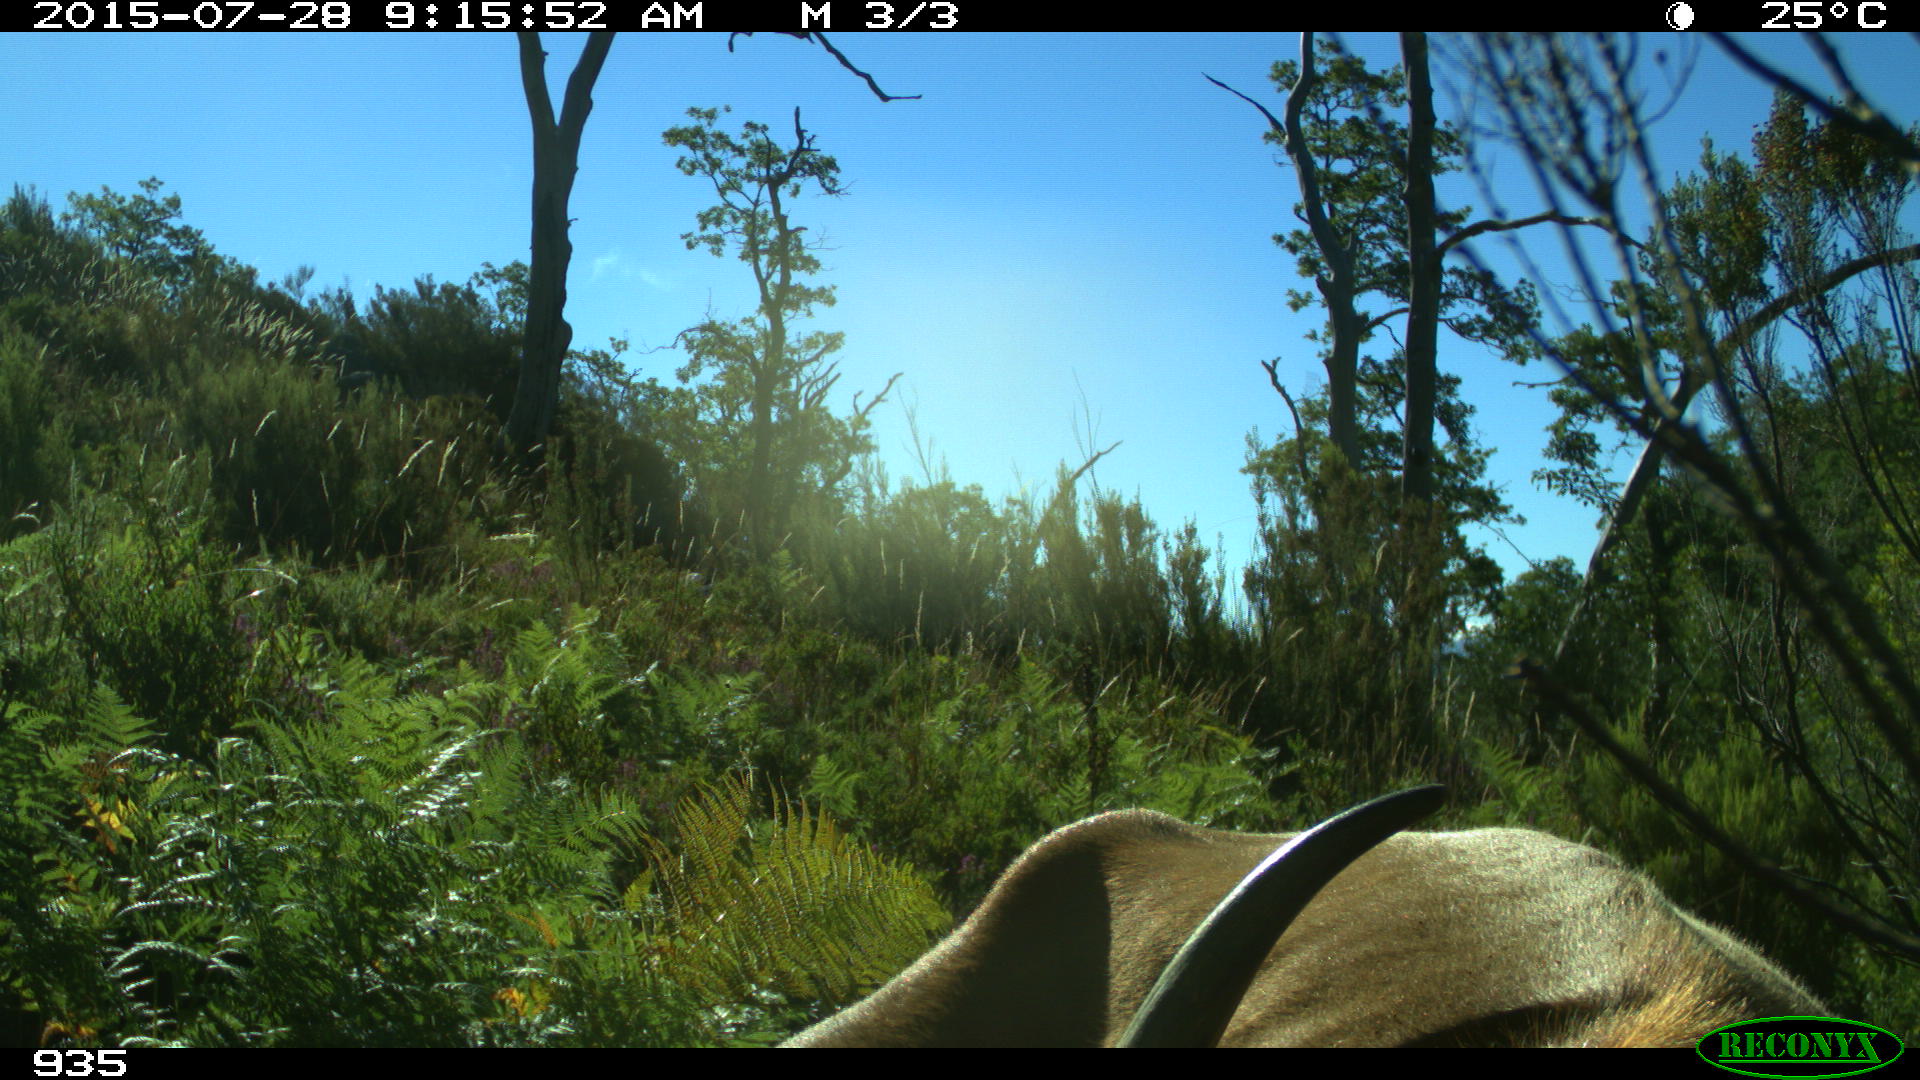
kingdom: Animalia
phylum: Chordata
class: Mammalia
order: Artiodactyla
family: Bovidae
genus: Bos
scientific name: Bos taurus
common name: Domesticated cattle
